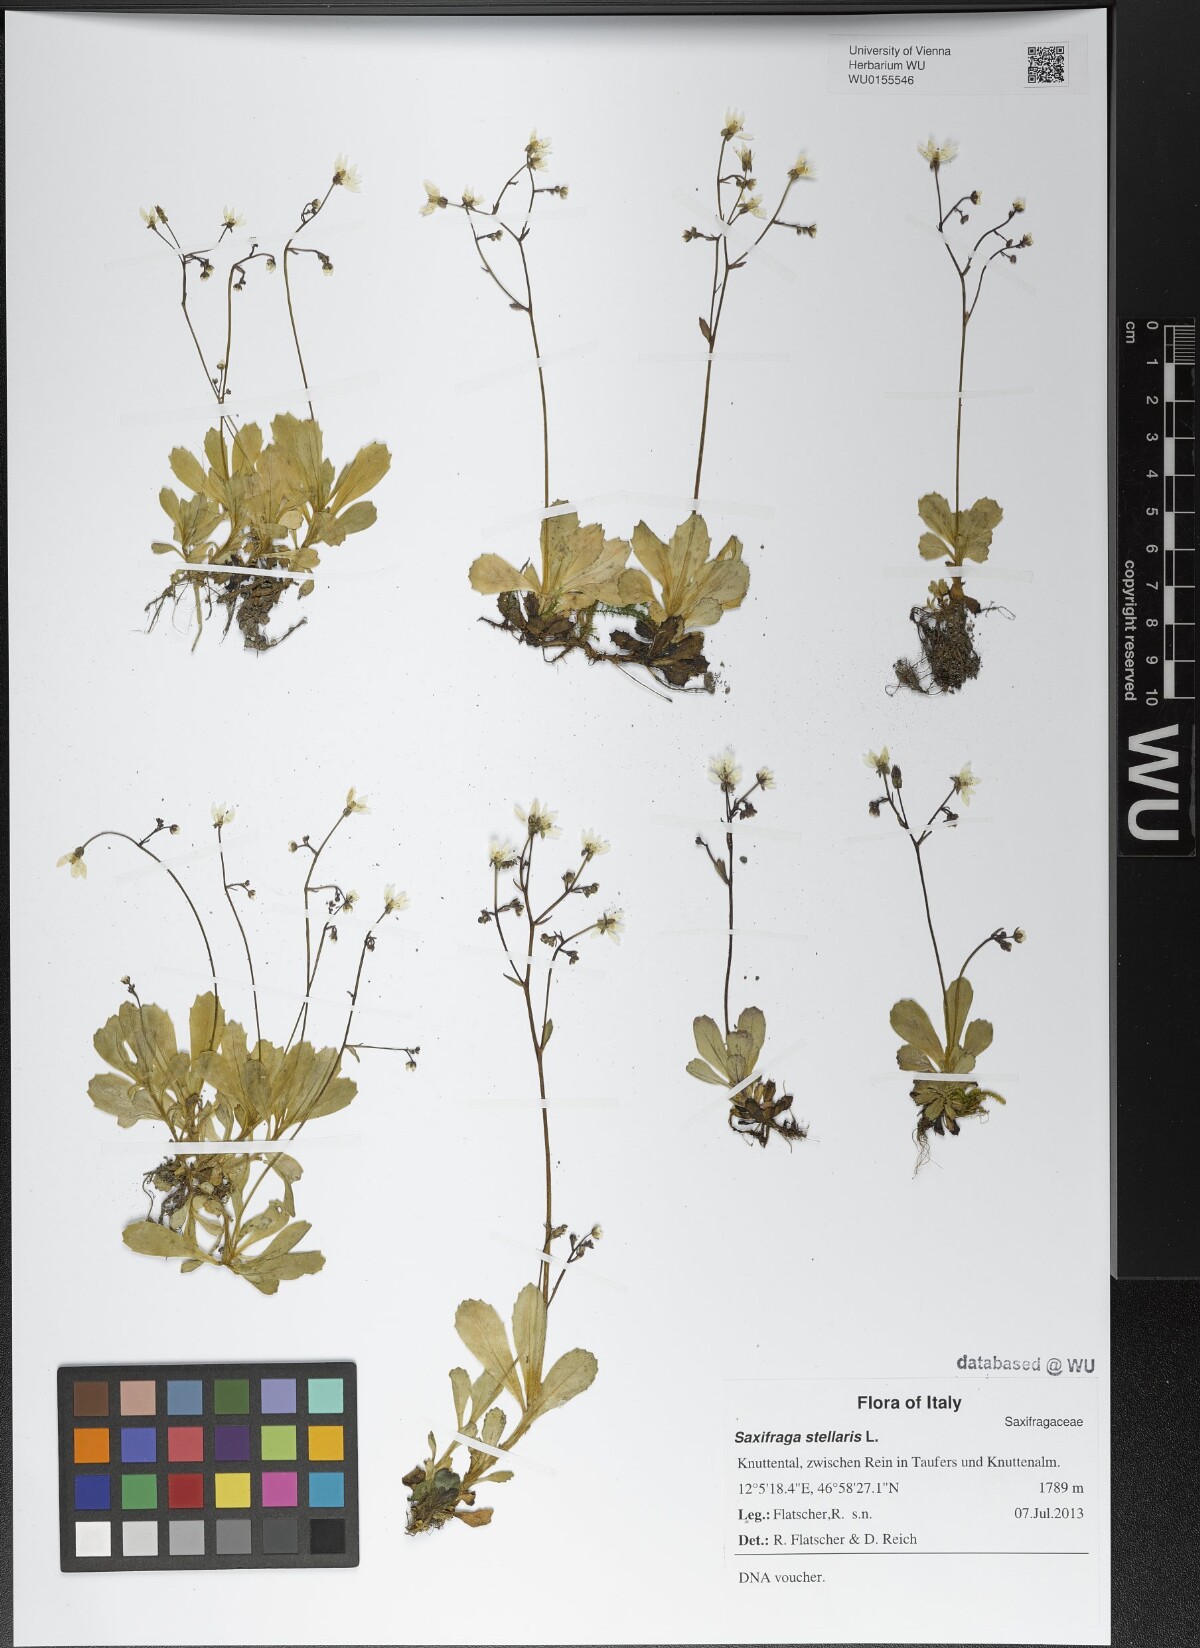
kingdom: Plantae
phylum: Tracheophyta
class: Magnoliopsida
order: Saxifragales
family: Saxifragaceae
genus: Micranthes
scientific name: Micranthes stellaris
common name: Starry saxifrage
